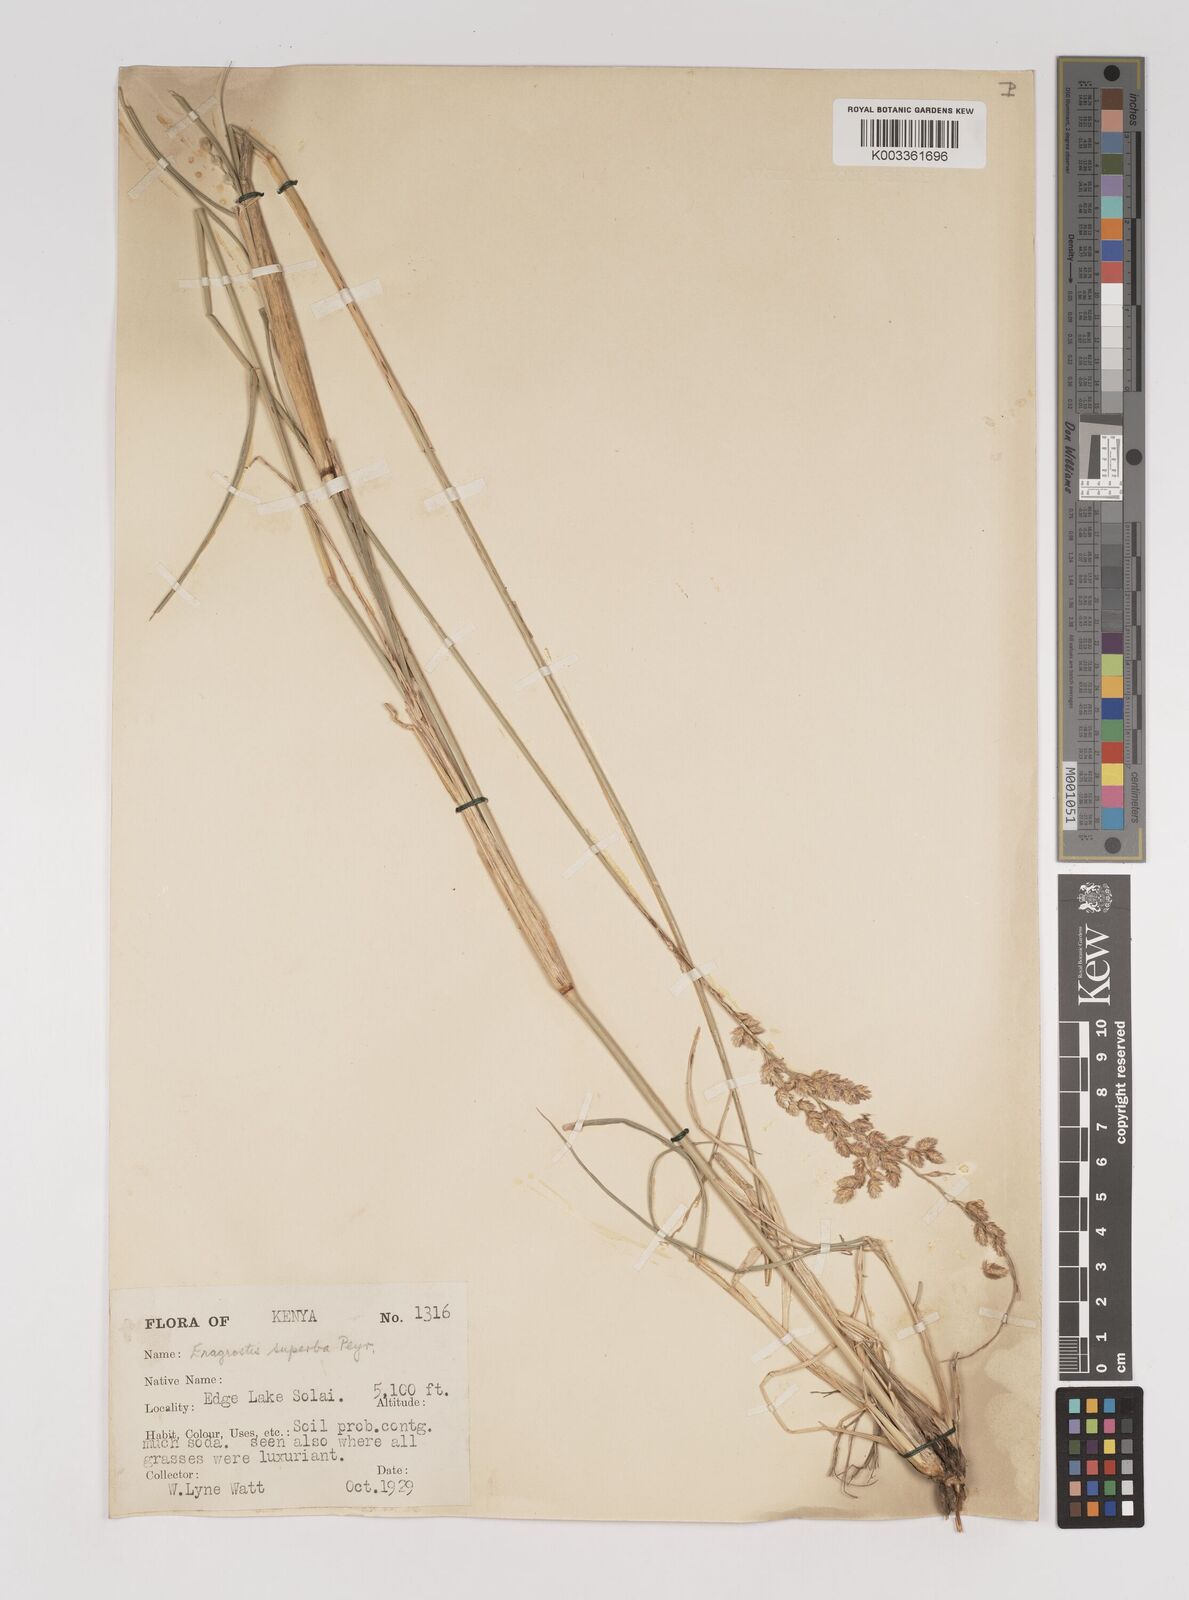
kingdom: Plantae
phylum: Tracheophyta
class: Liliopsida
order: Poales
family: Poaceae
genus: Eragrostis
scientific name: Eragrostis superba
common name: Wilman lovegrass
